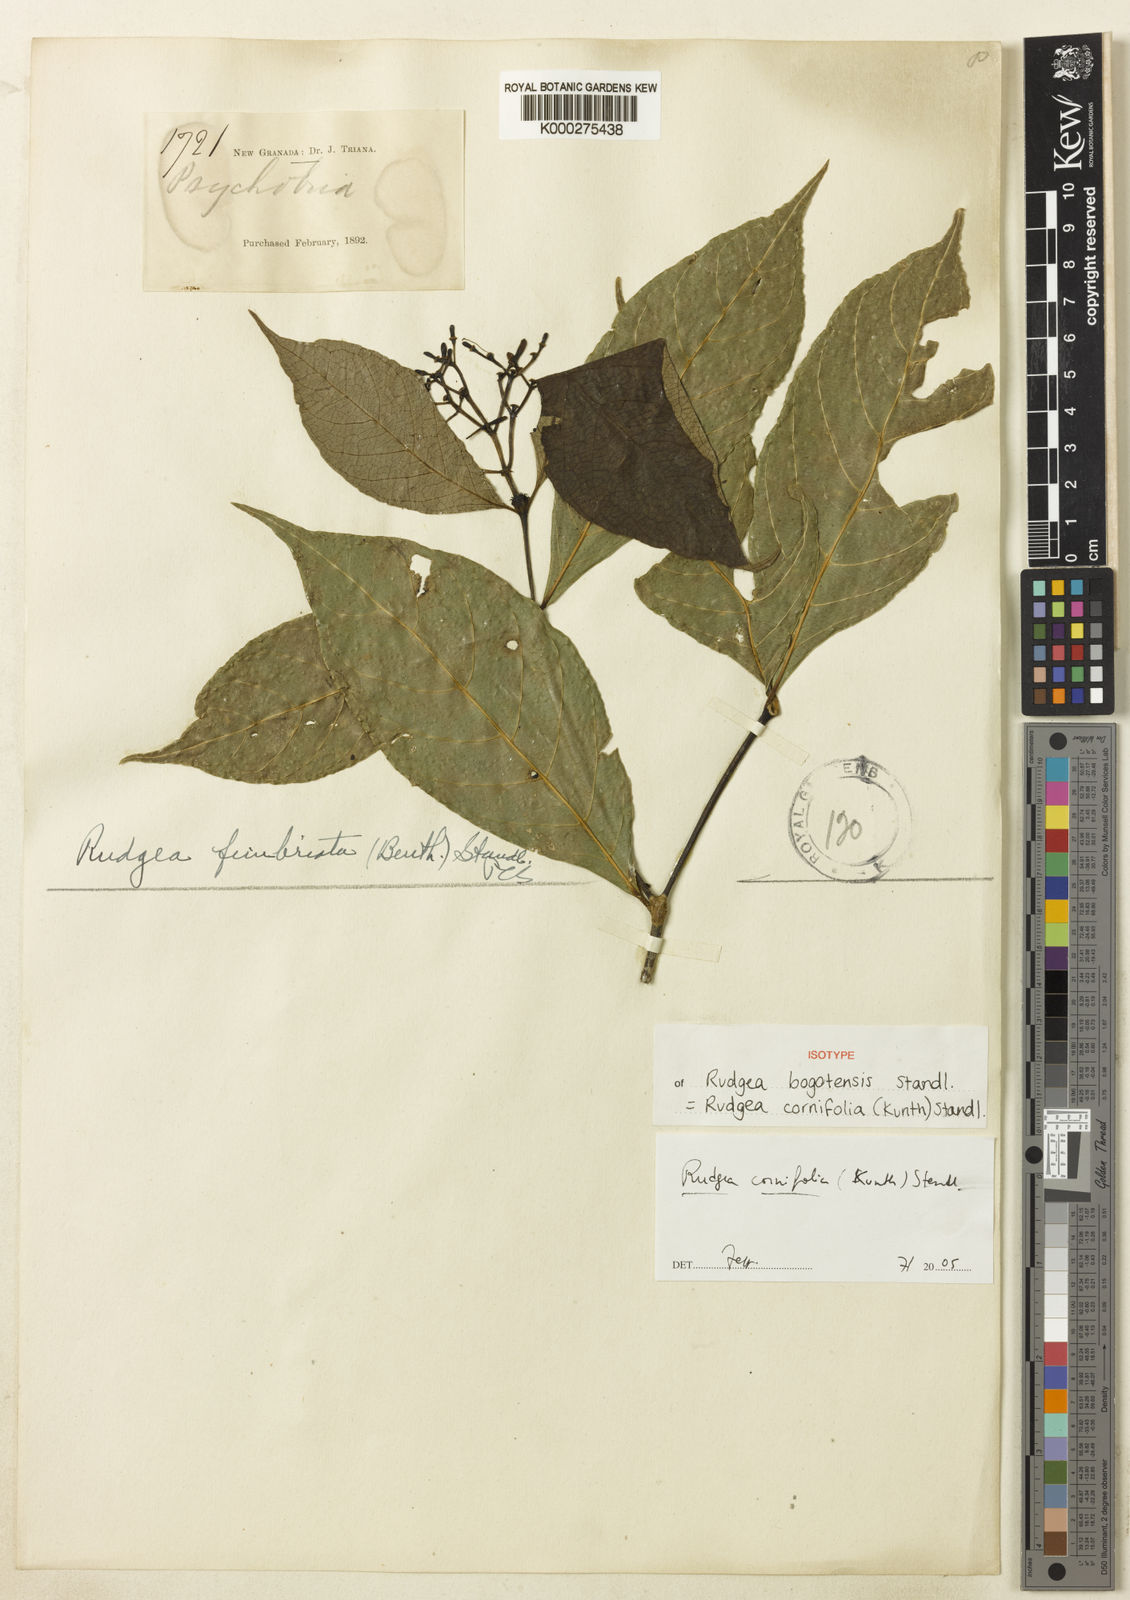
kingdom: Plantae
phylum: Tracheophyta
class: Magnoliopsida
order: Gentianales
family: Rubiaceae
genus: Rudgea
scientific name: Rudgea cornifolia
